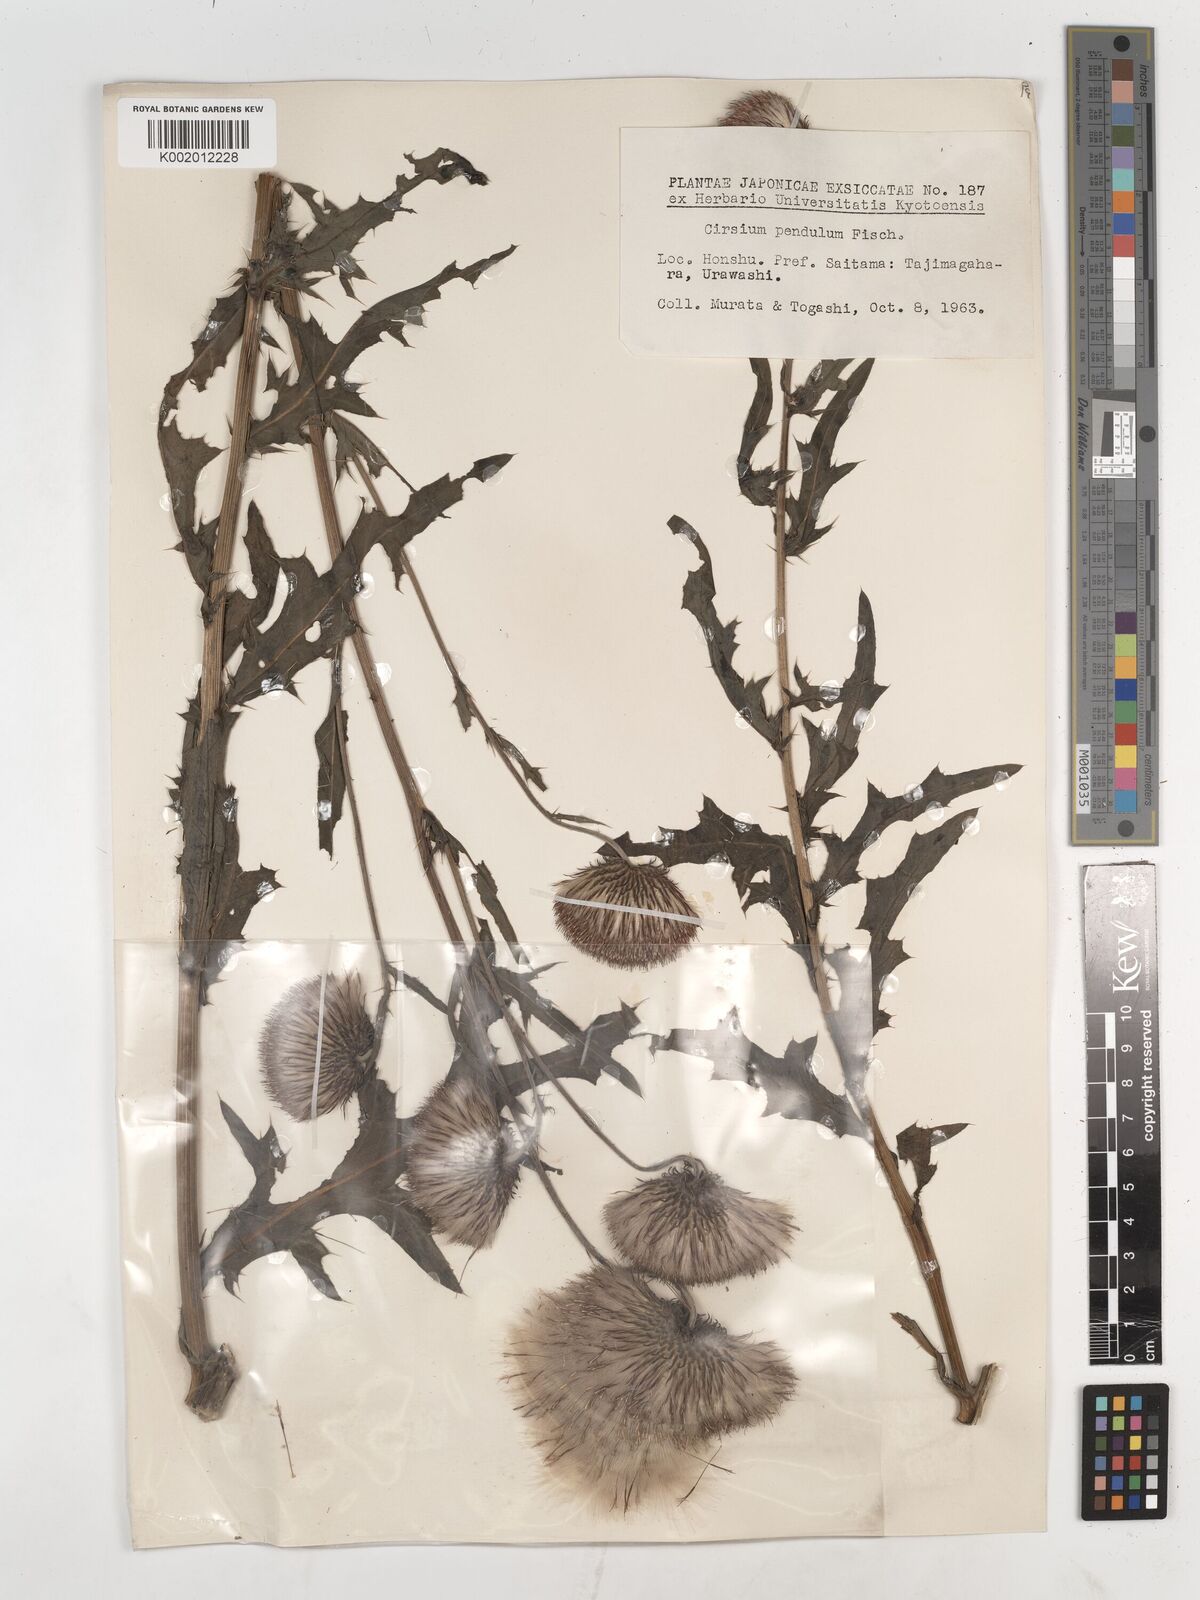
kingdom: Plantae
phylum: Tracheophyta
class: Magnoliopsida
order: Asterales
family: Asteraceae
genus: Cirsium
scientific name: Cirsium pendulum
